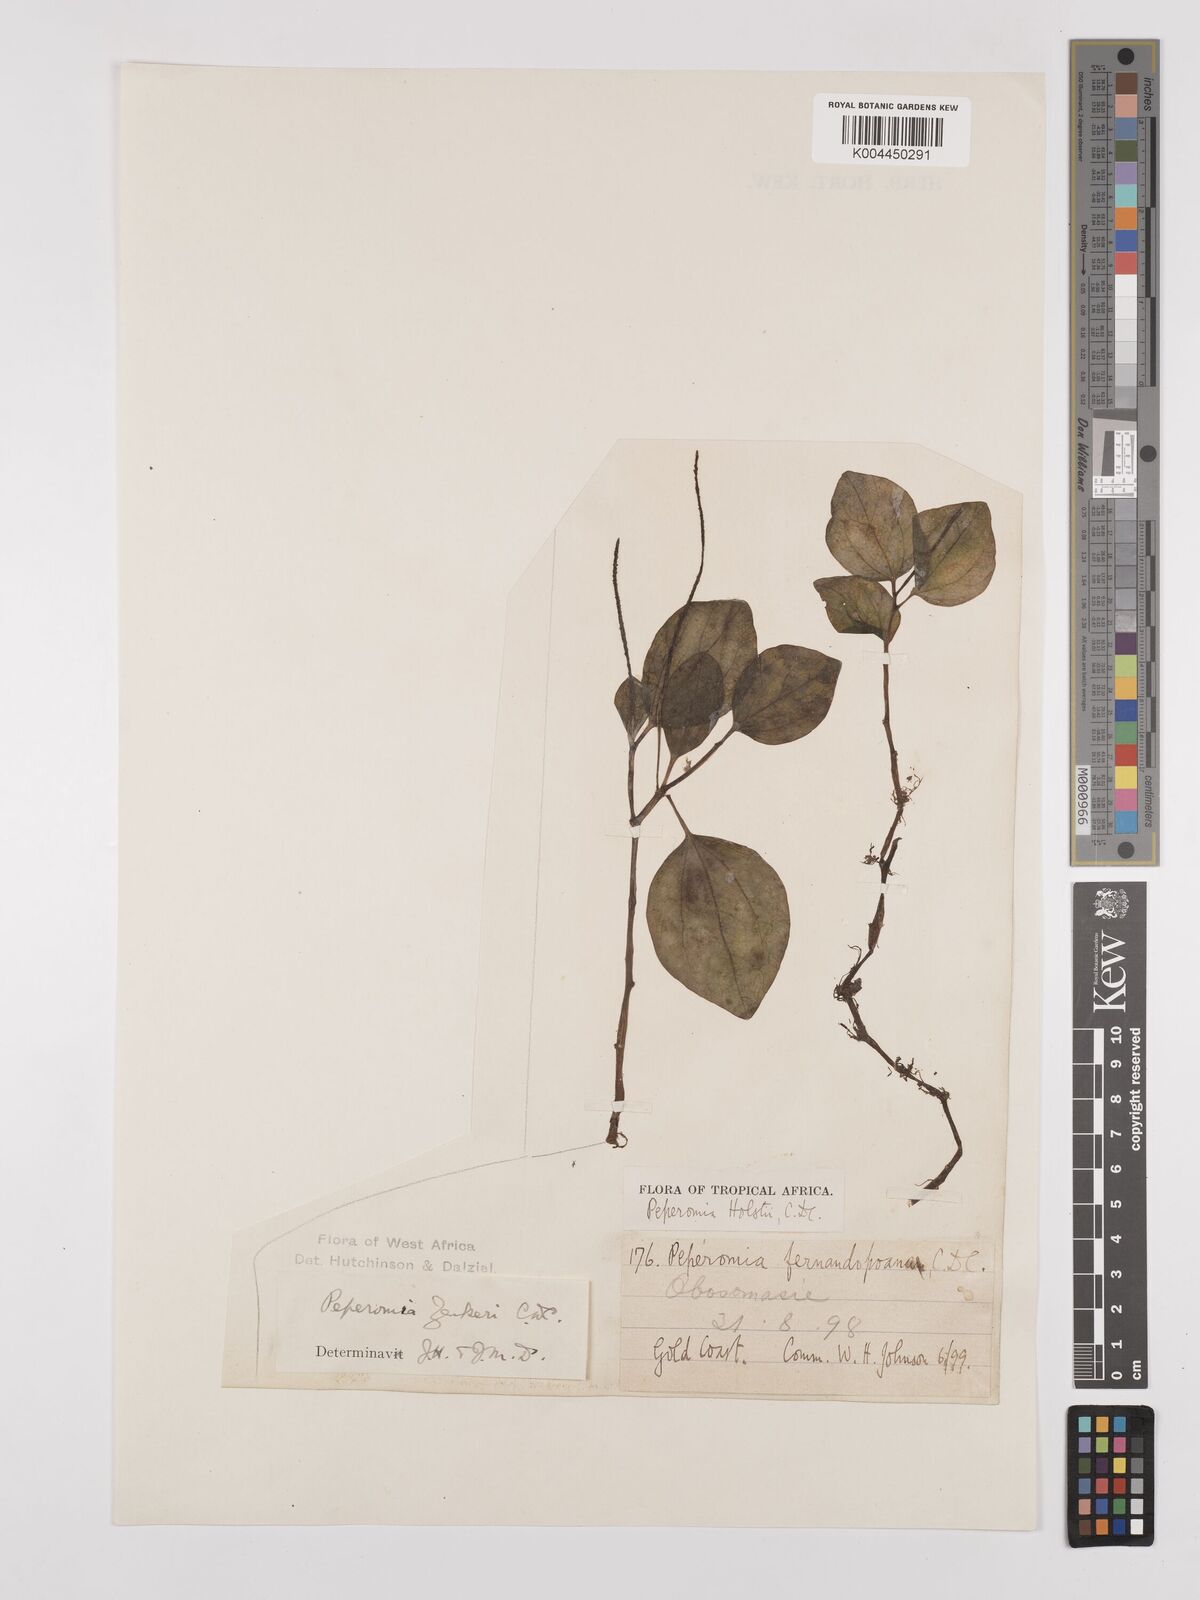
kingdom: Plantae
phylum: Tracheophyta
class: Magnoliopsida
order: Piperales
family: Piperaceae
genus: Peperomia
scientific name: Peperomia molleri
